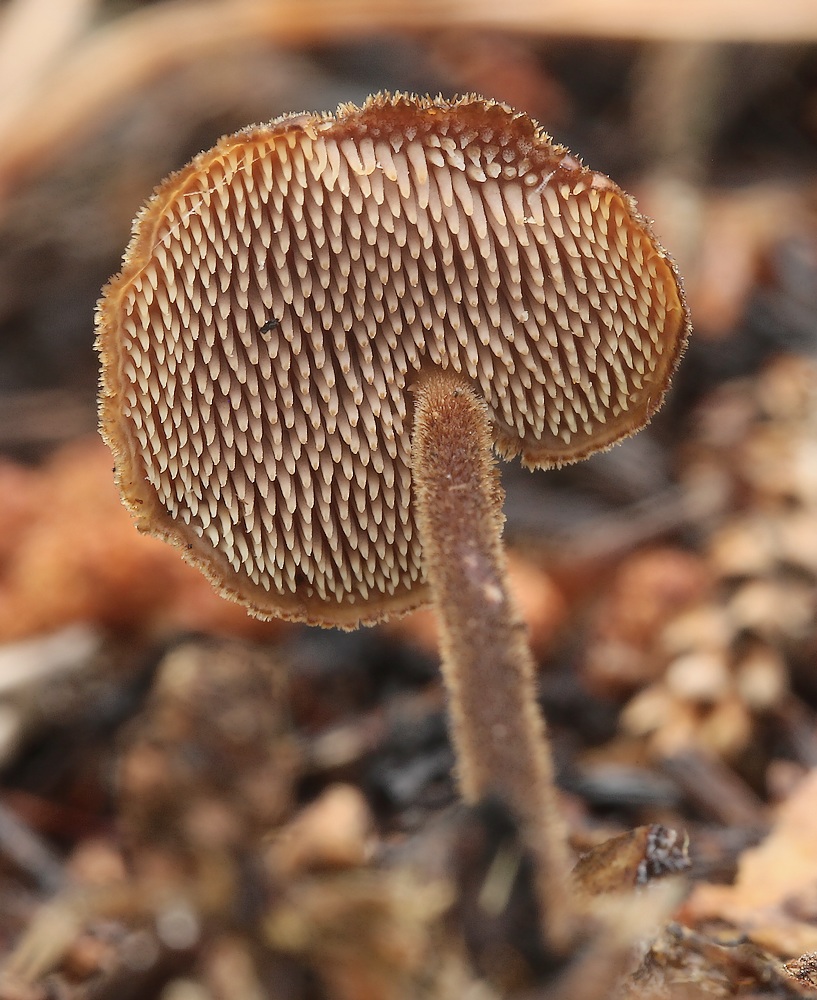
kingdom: Fungi
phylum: Basidiomycota
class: Agaricomycetes
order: Russulales
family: Auriscalpiaceae
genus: Auriscalpium
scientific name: Auriscalpium vulgare
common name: koglepigsvamp
